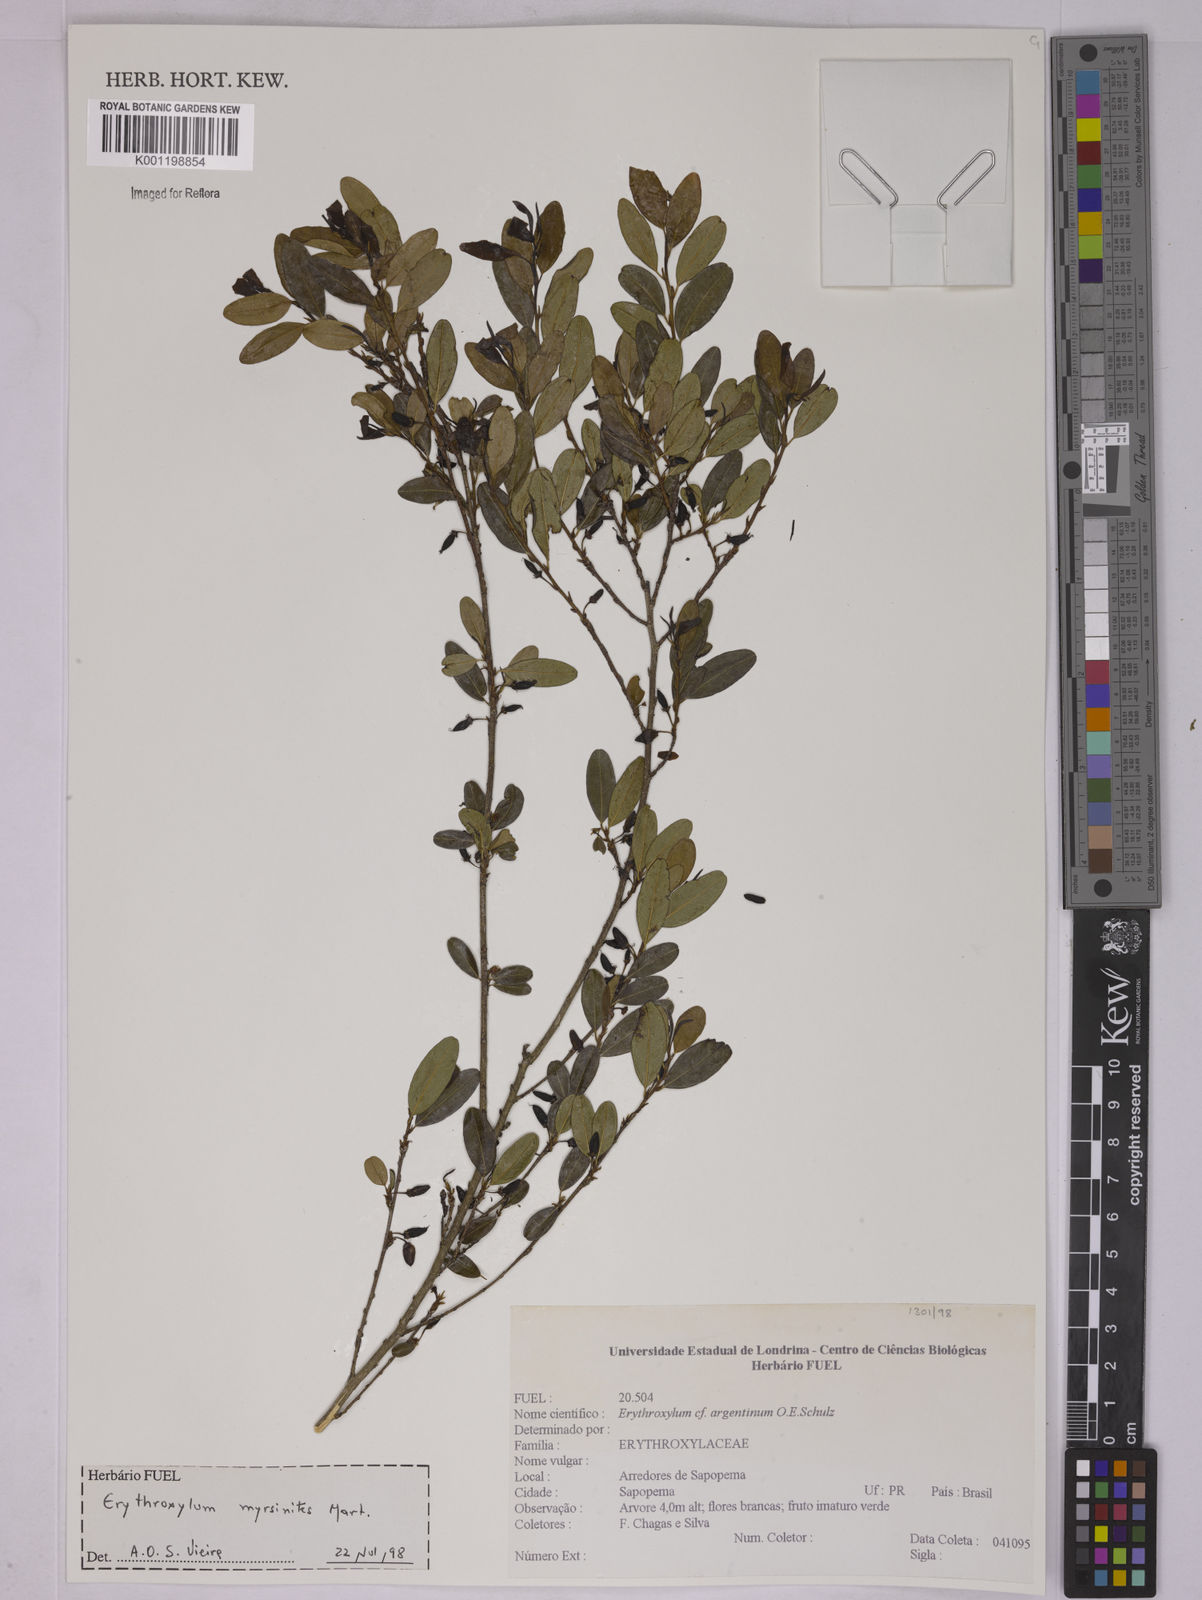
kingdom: Plantae
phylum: Tracheophyta
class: Magnoliopsida
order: Malpighiales
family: Erythroxylaceae
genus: Erythroxylum
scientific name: Erythroxylum myrsinites
